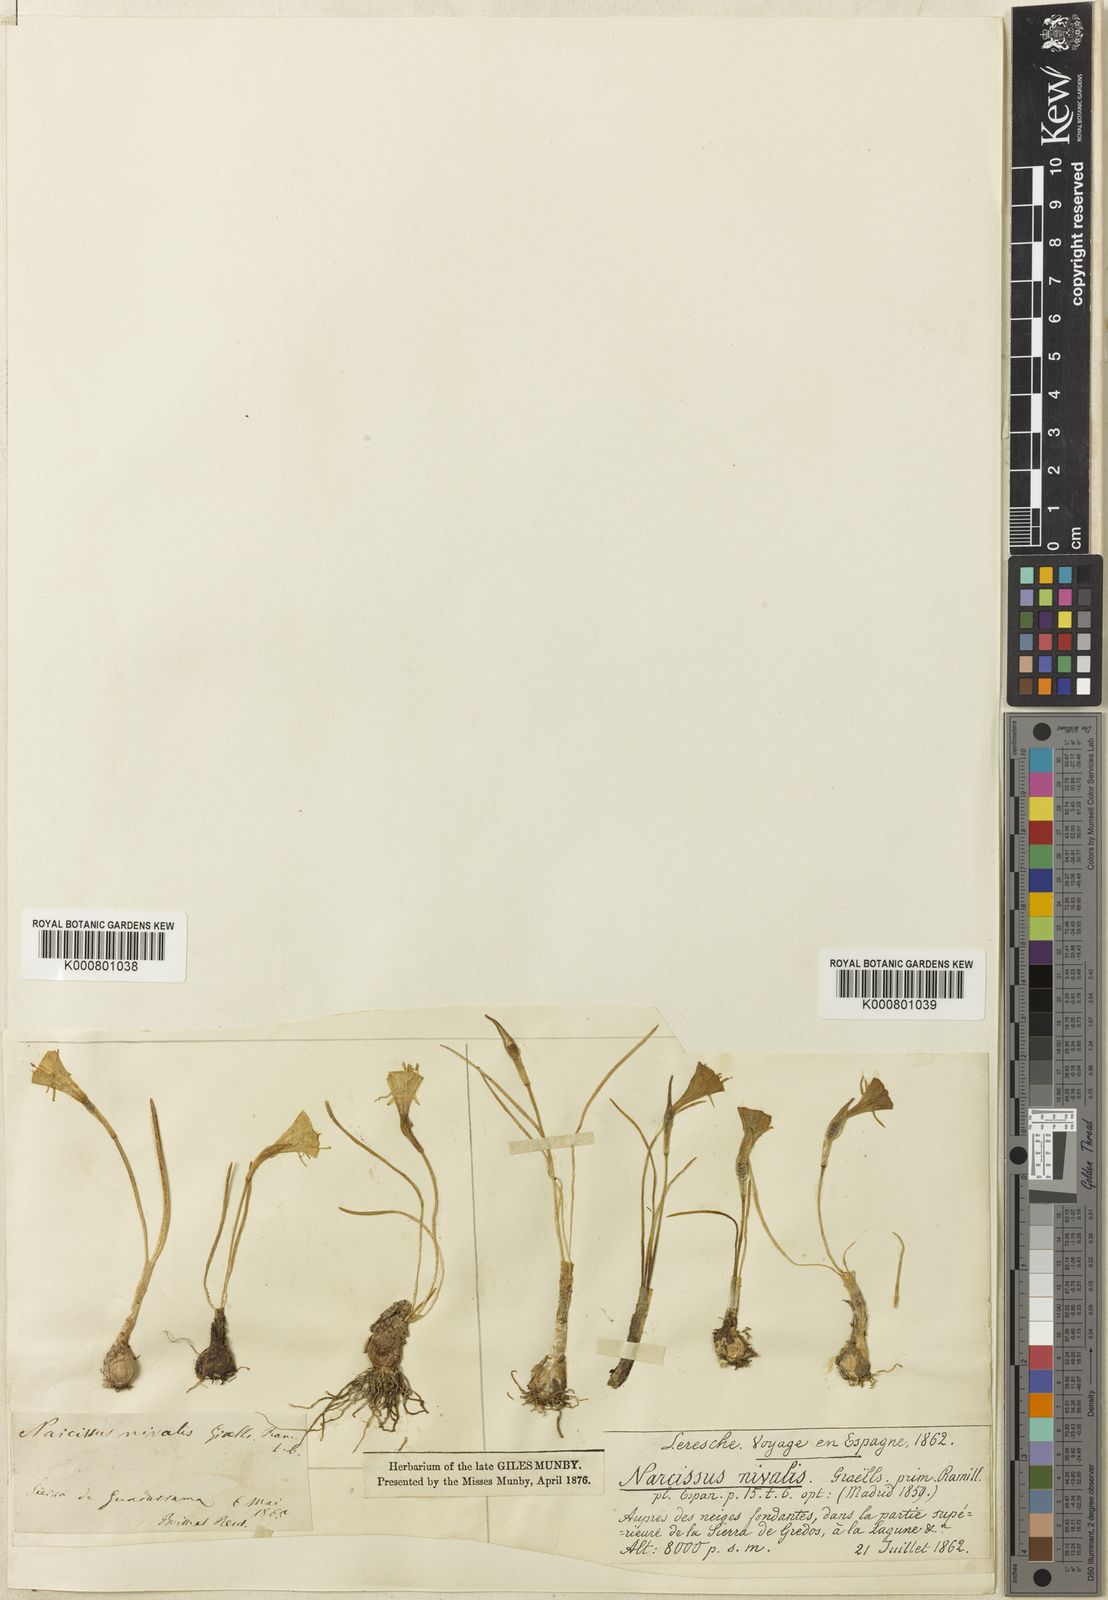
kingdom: Plantae
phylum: Tracheophyta
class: Liliopsida
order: Asparagales
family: Amaryllidaceae
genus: Narcissus
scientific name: Narcissus bulbocodium
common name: Hoop-petticoat daffodil
